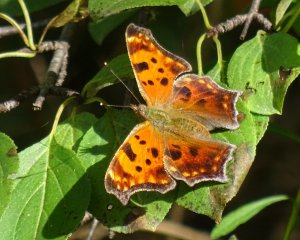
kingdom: Animalia
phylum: Arthropoda
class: Insecta
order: Lepidoptera
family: Nymphalidae
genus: Polygonia
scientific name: Polygonia comma
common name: Eastern Comma
